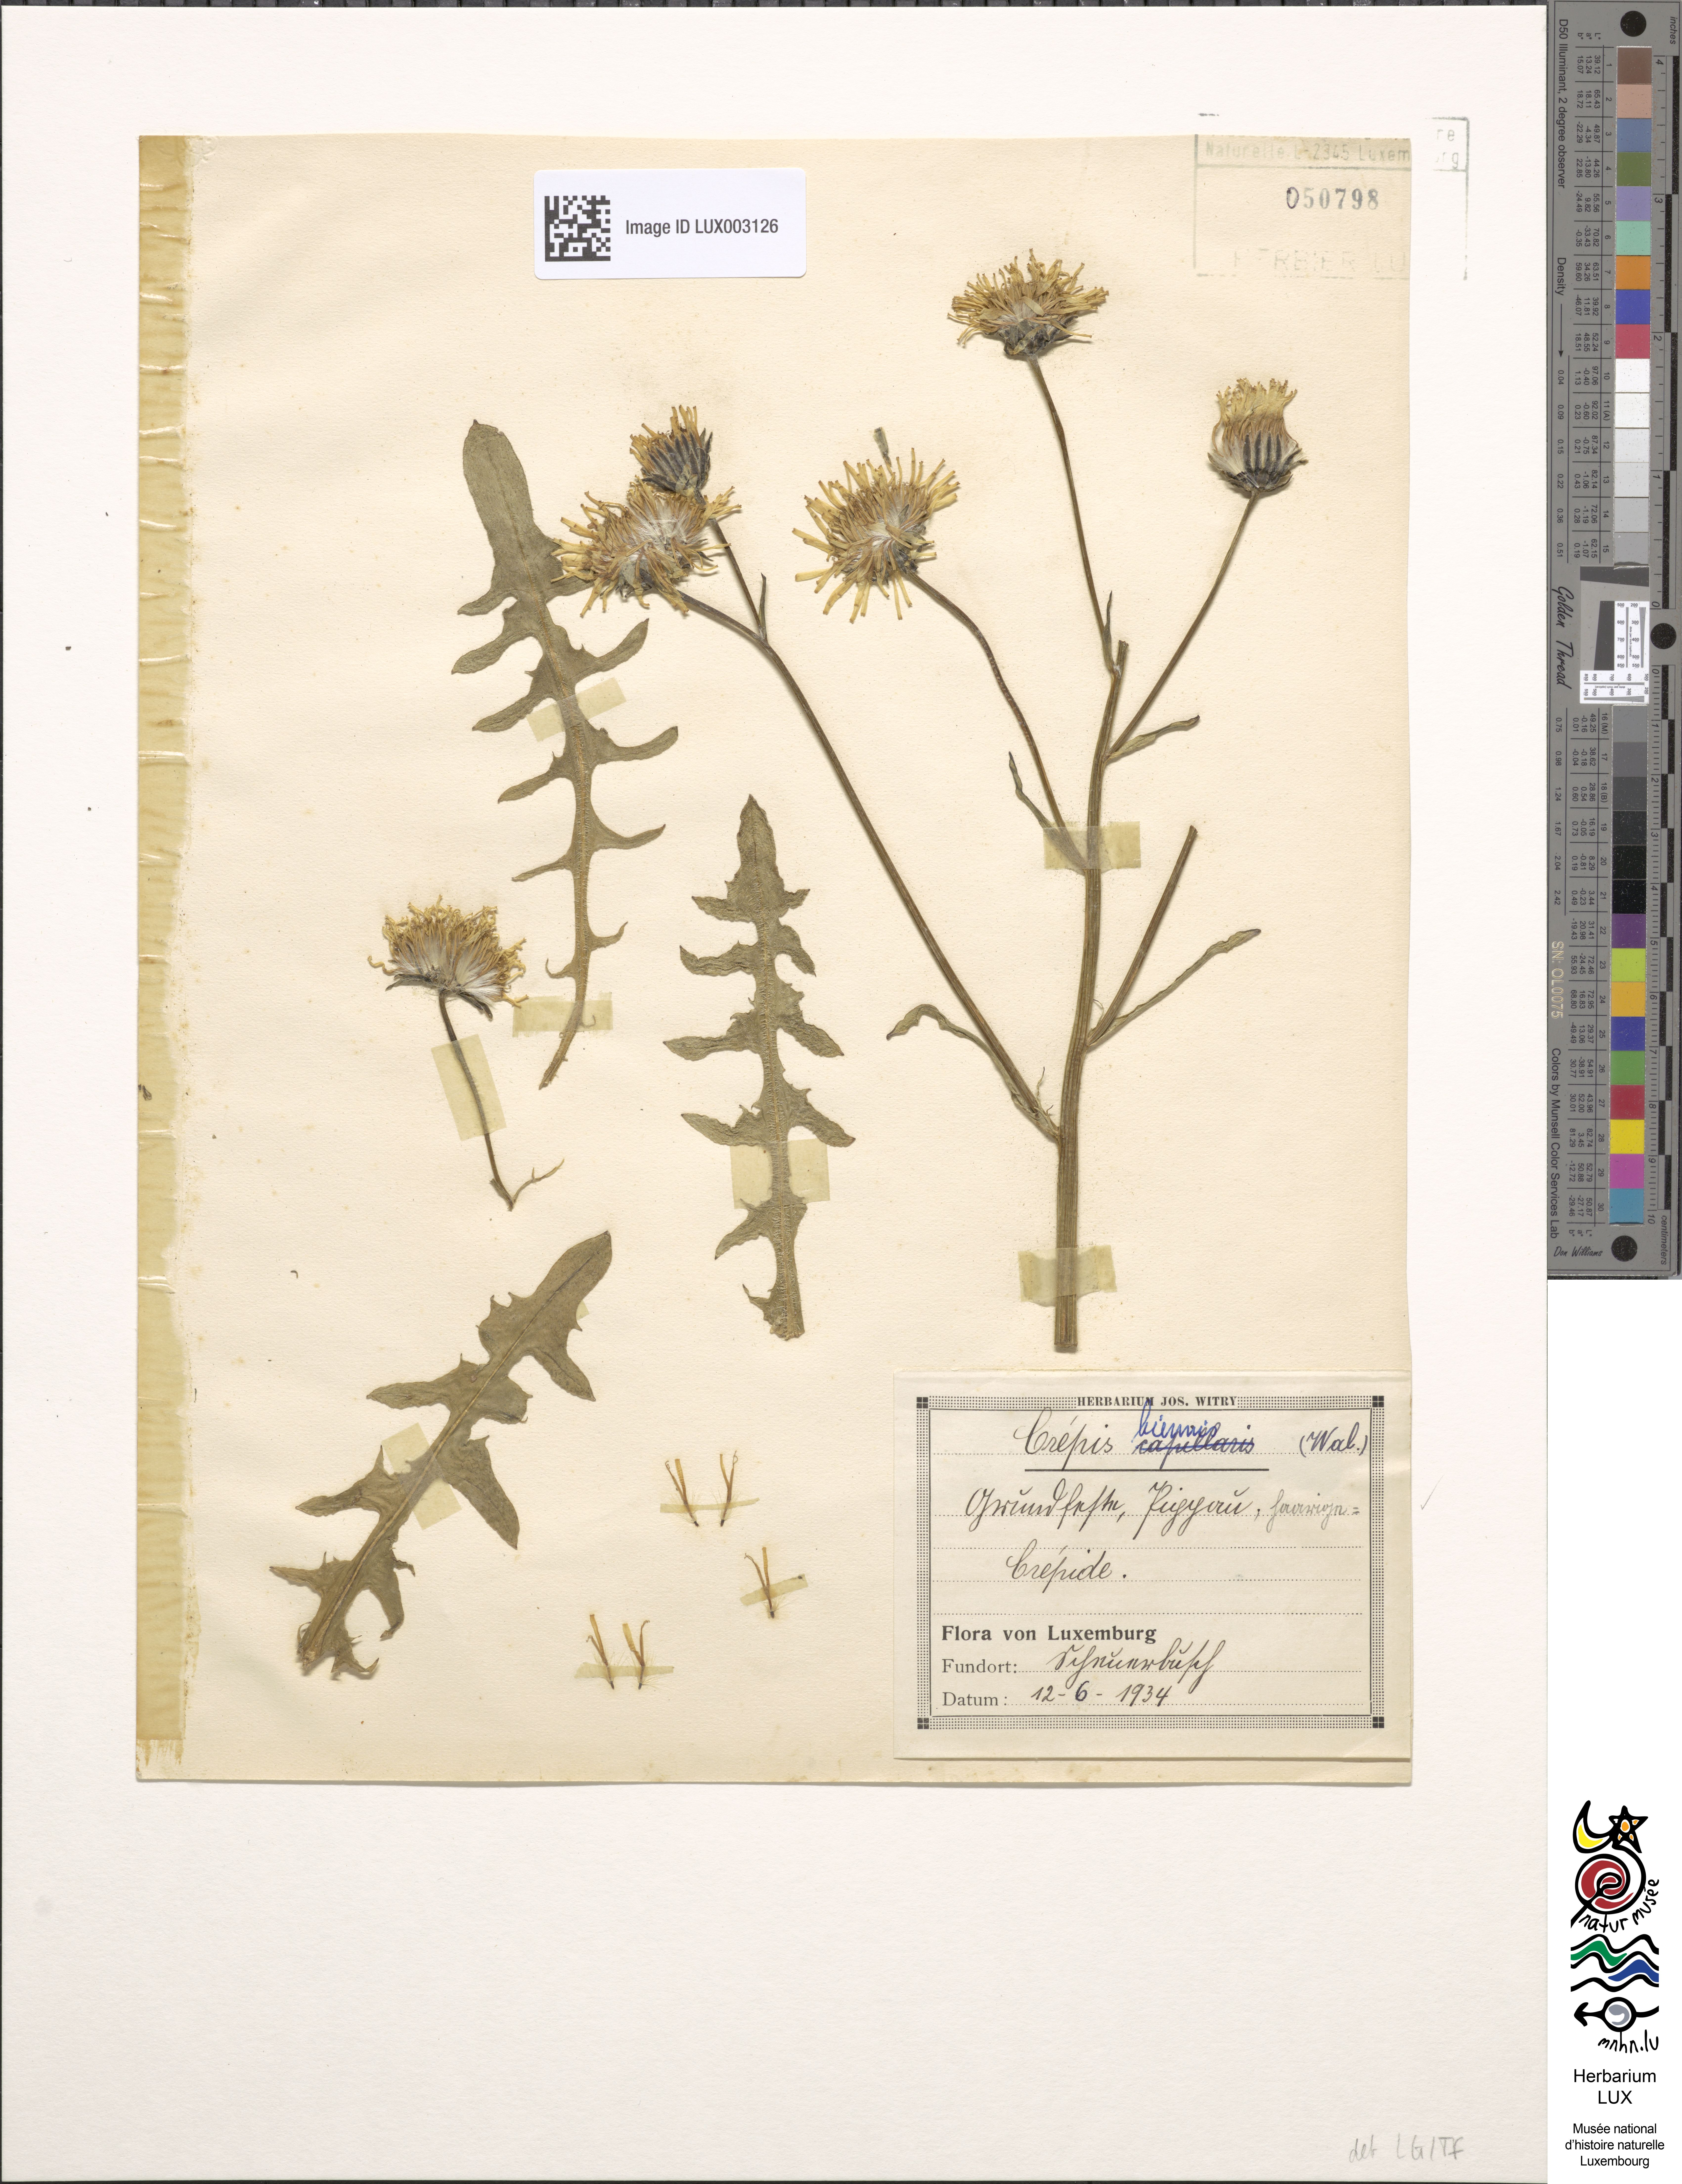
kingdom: Plantae
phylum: Tracheophyta
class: Magnoliopsida
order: Asterales
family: Asteraceae
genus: Crepis
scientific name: Crepis biennis
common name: Rough hawk's-beard
